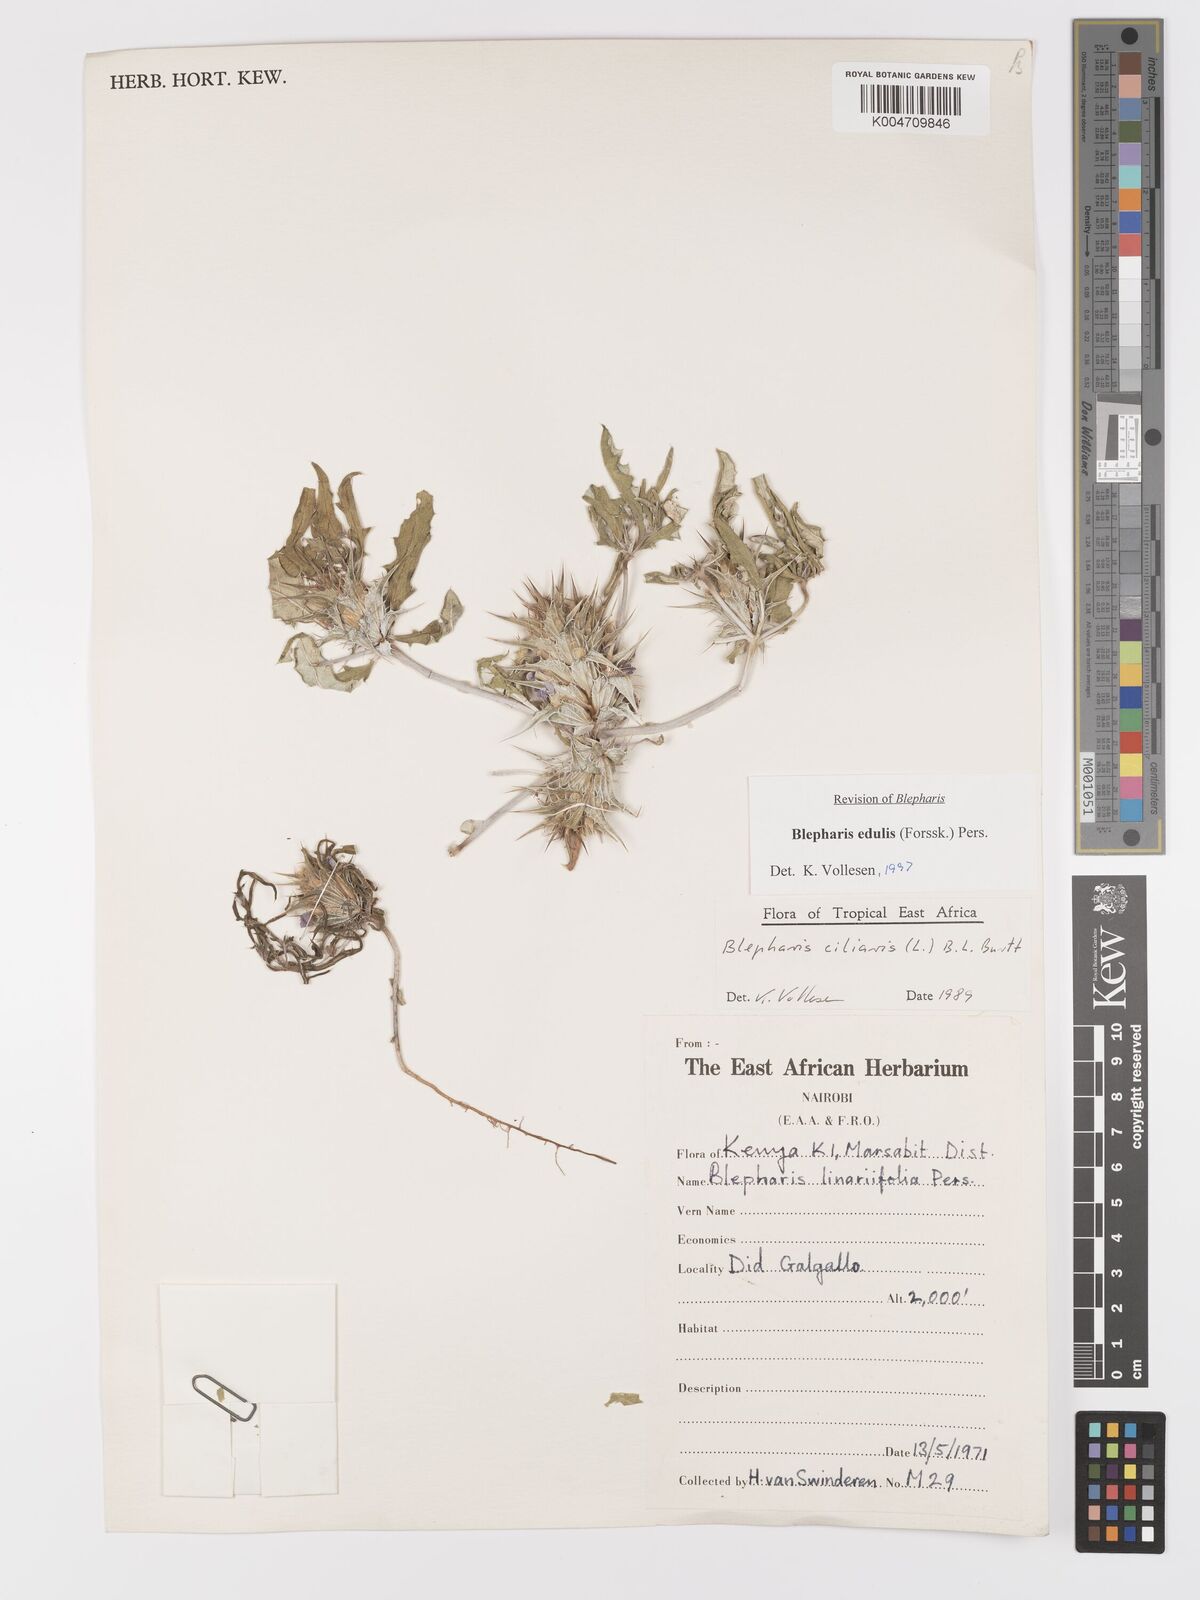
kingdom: Plantae
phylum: Tracheophyta
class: Magnoliopsida
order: Lamiales
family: Acanthaceae
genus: Blepharis
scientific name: Blepharis edulis
